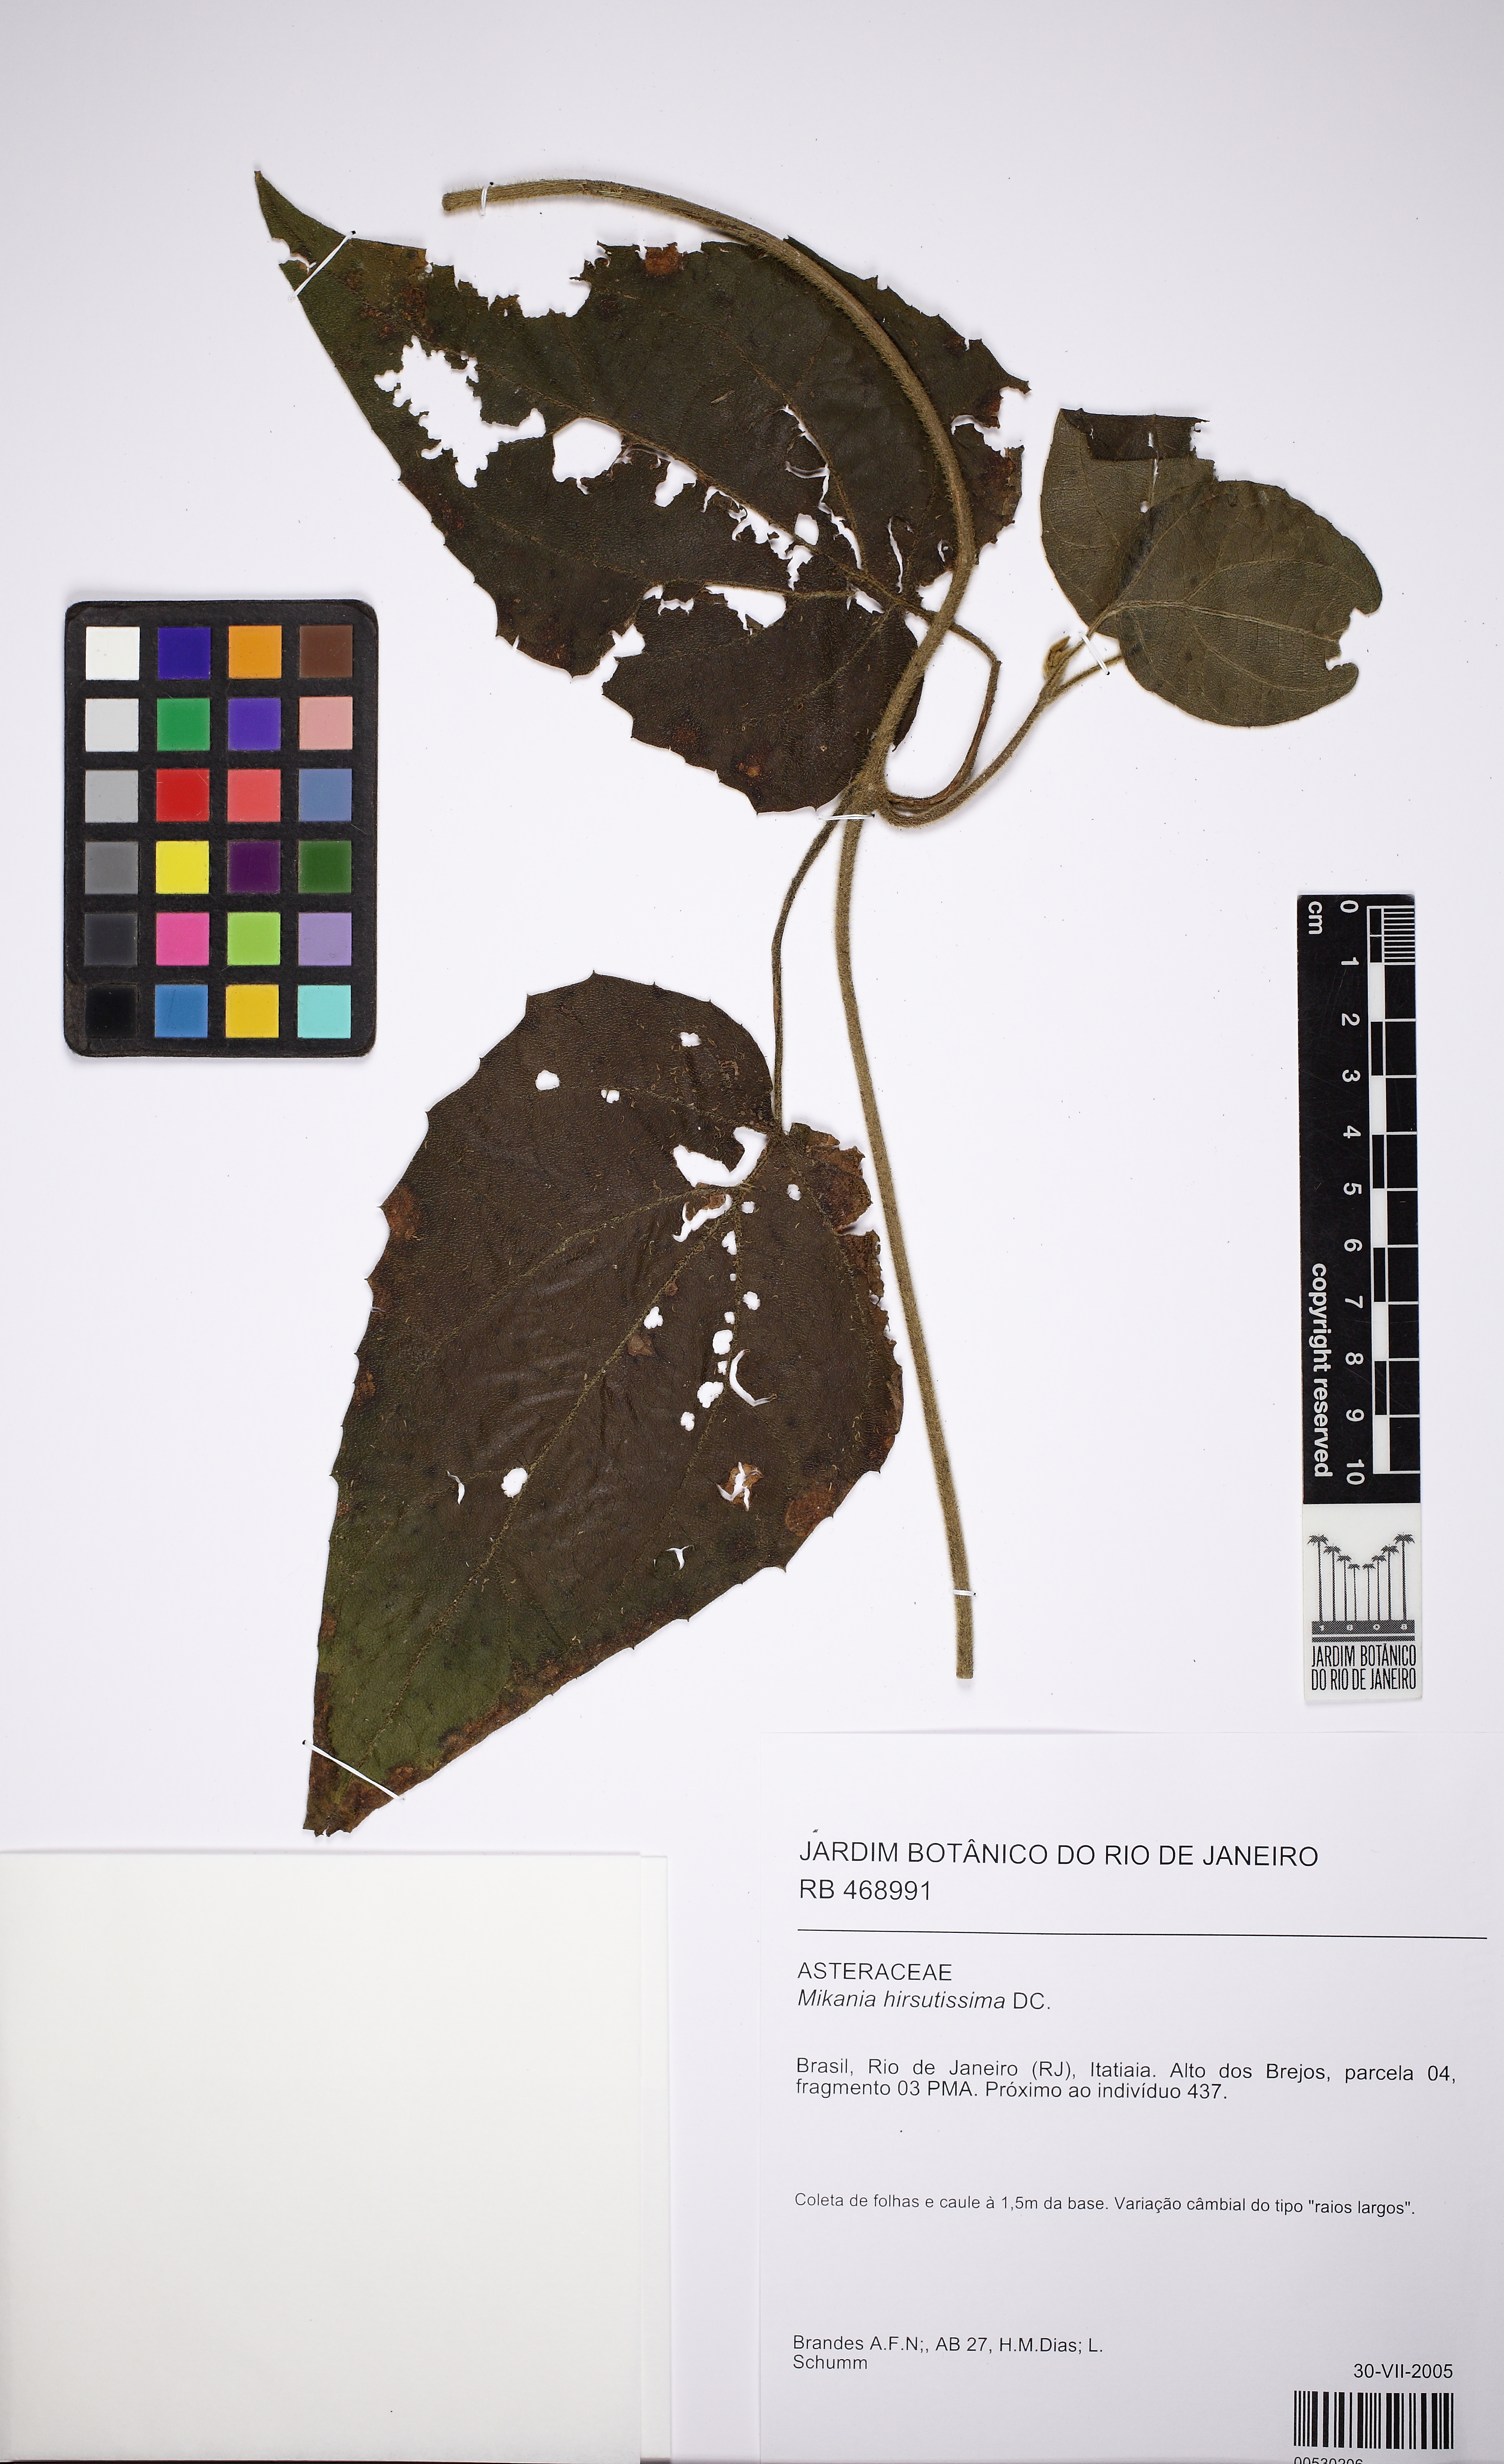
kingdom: Plantae
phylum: Tracheophyta
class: Magnoliopsida
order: Asterales
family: Asteraceae
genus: Mikania
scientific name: Mikania banisteriae
